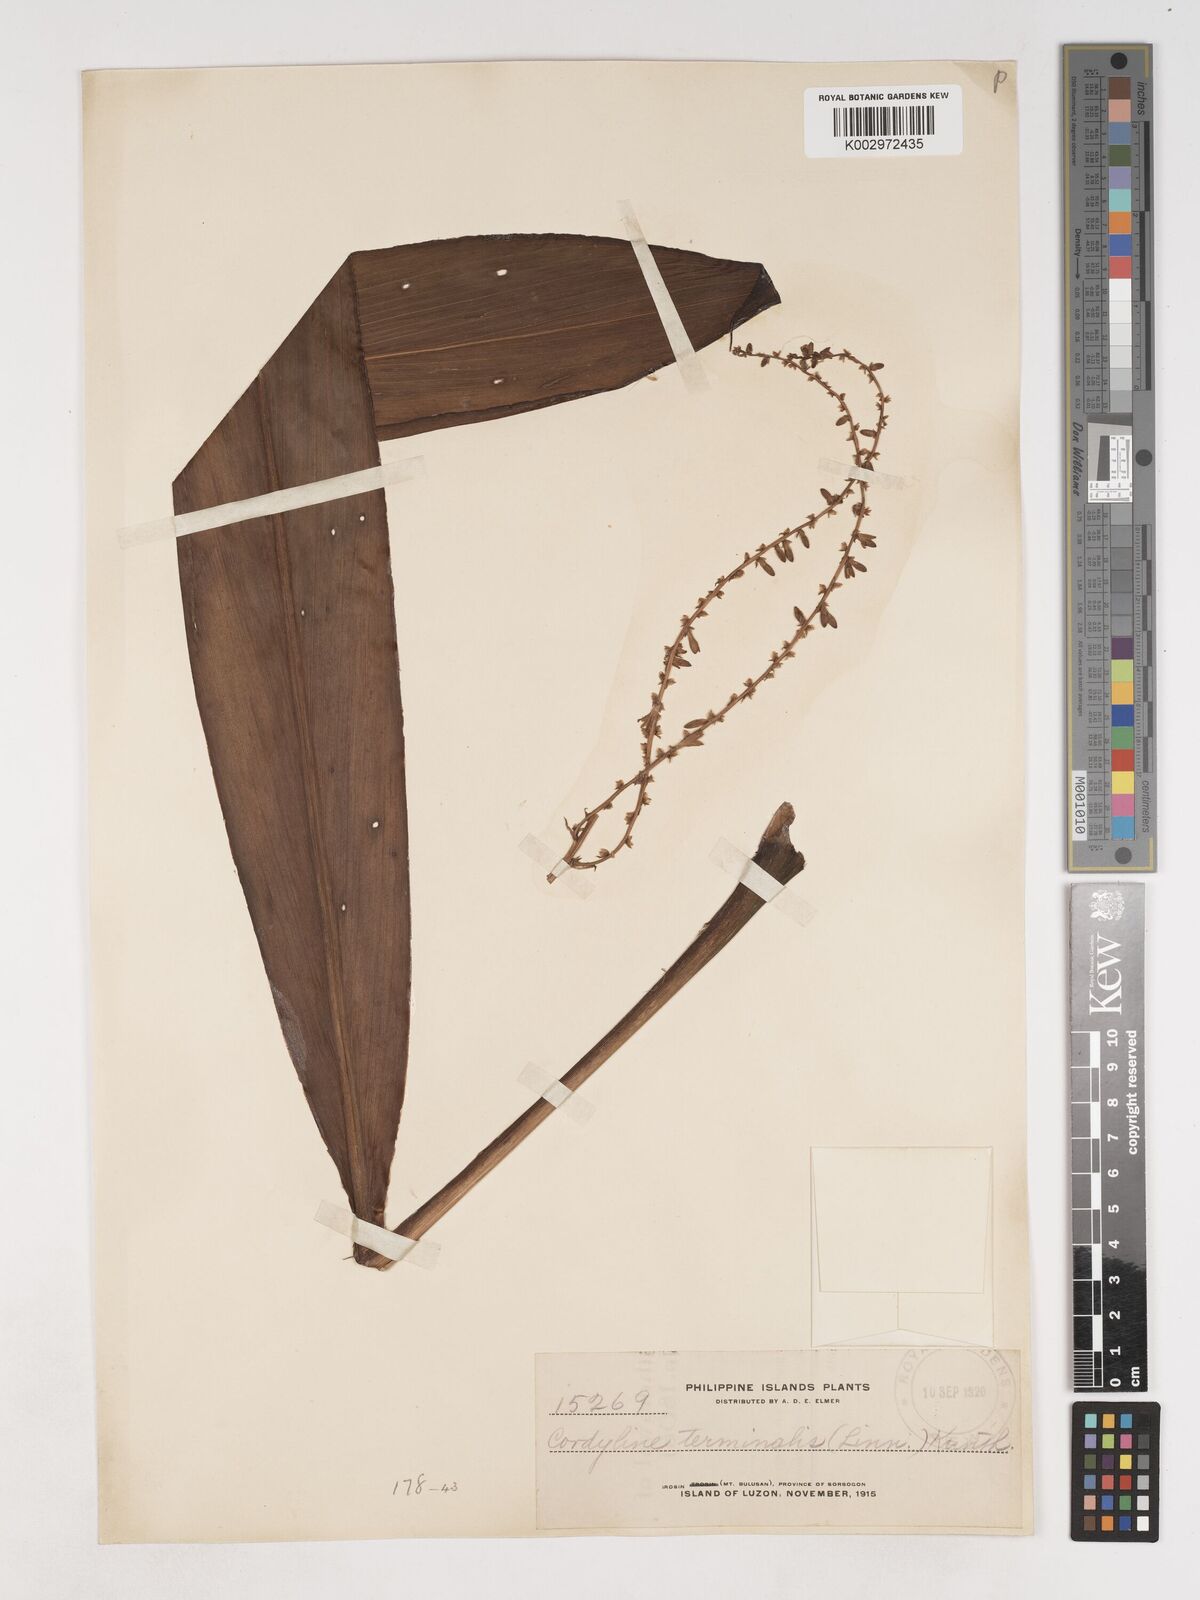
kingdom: Plantae
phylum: Tracheophyta
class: Liliopsida
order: Asparagales
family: Asparagaceae
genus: Cordyline
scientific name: Cordyline fruticosa
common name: Good-luck-plant
